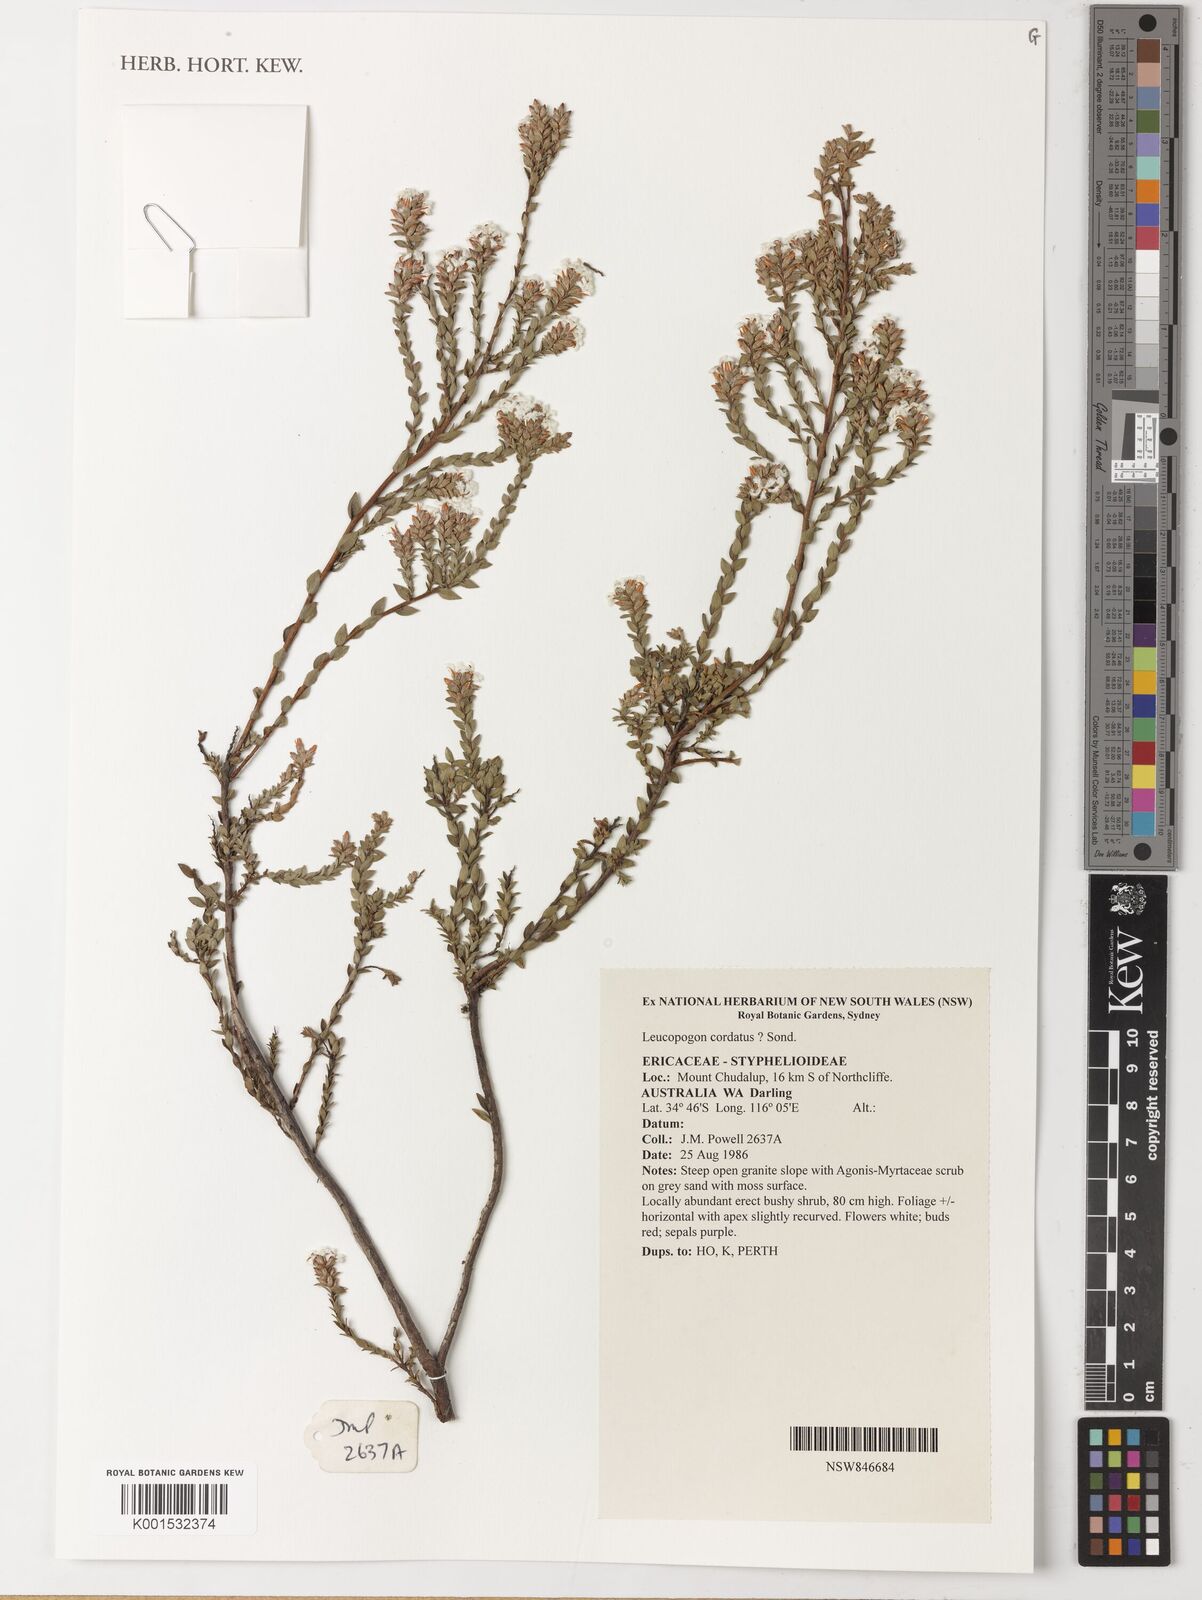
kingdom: Plantae
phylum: Tracheophyta
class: Magnoliopsida
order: Ericales
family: Ericaceae
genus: Leucopogon
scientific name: Leucopogon cordatus
